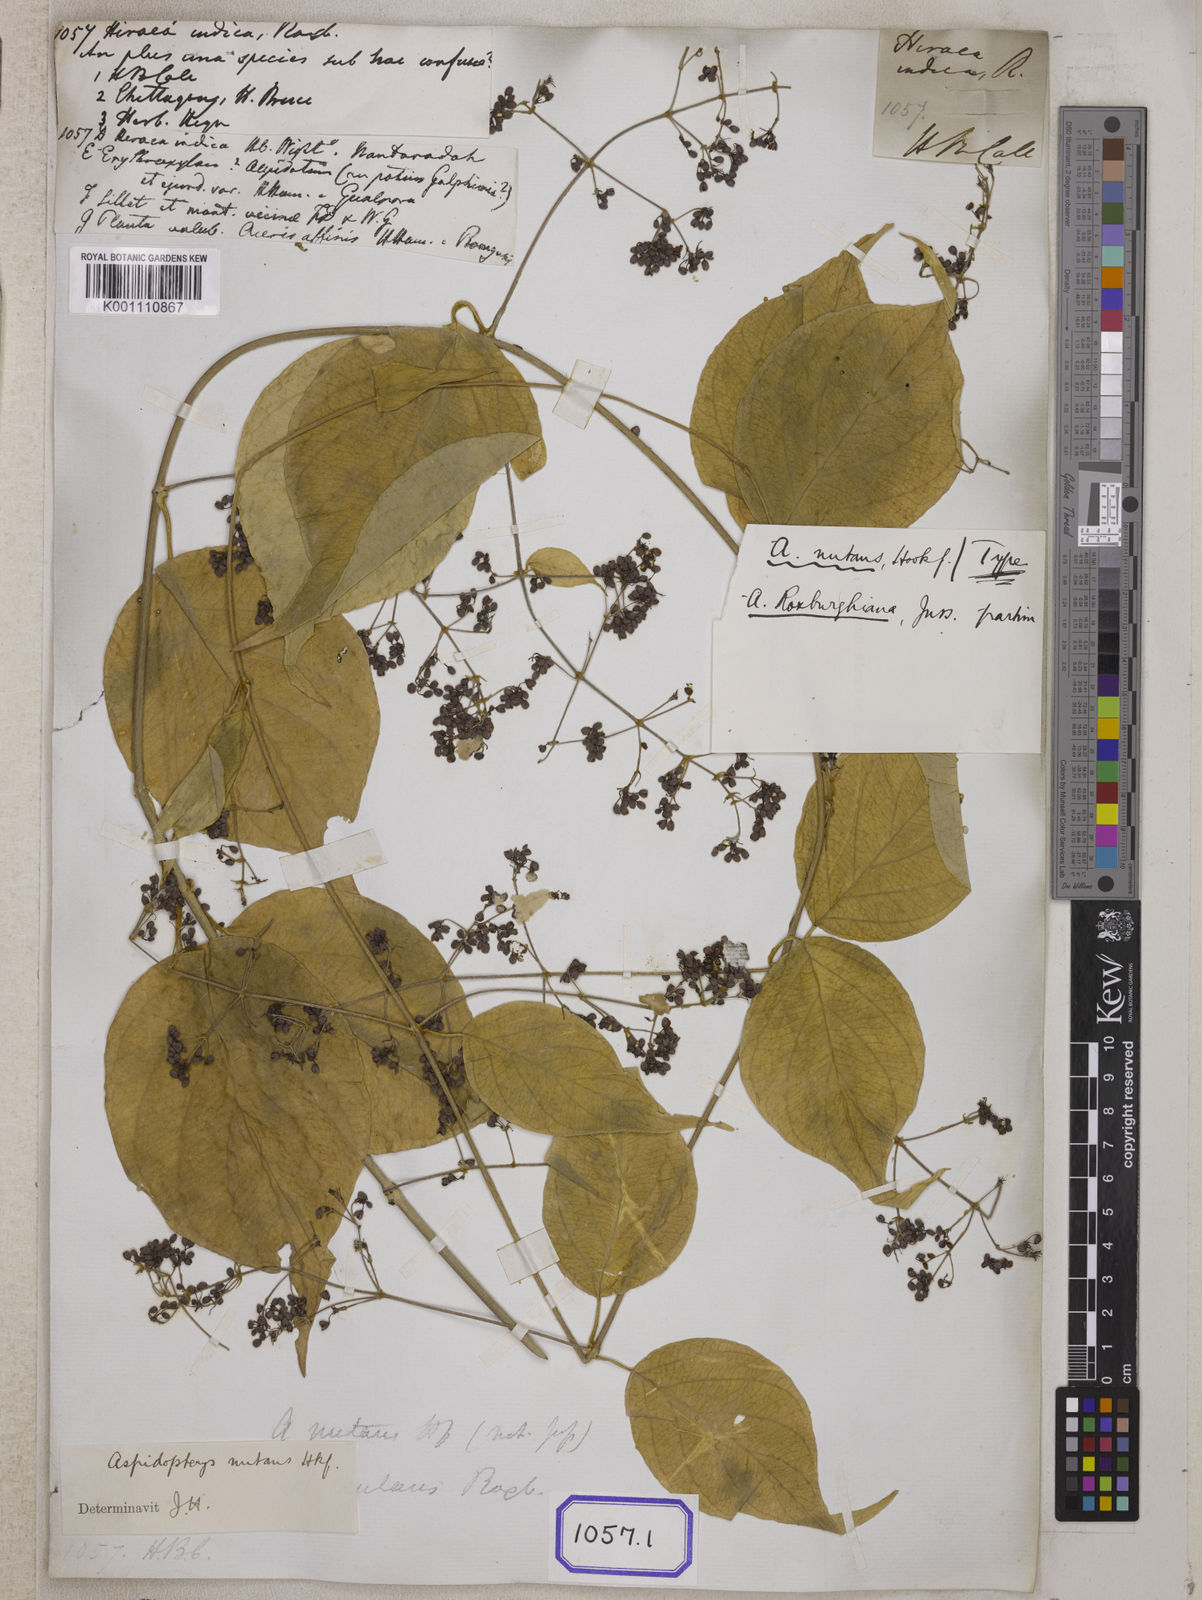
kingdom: Plantae
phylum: Tracheophyta
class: Magnoliopsida
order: Malpighiales
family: Malpighiaceae
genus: Aspidopterys
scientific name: Aspidopterys indica
